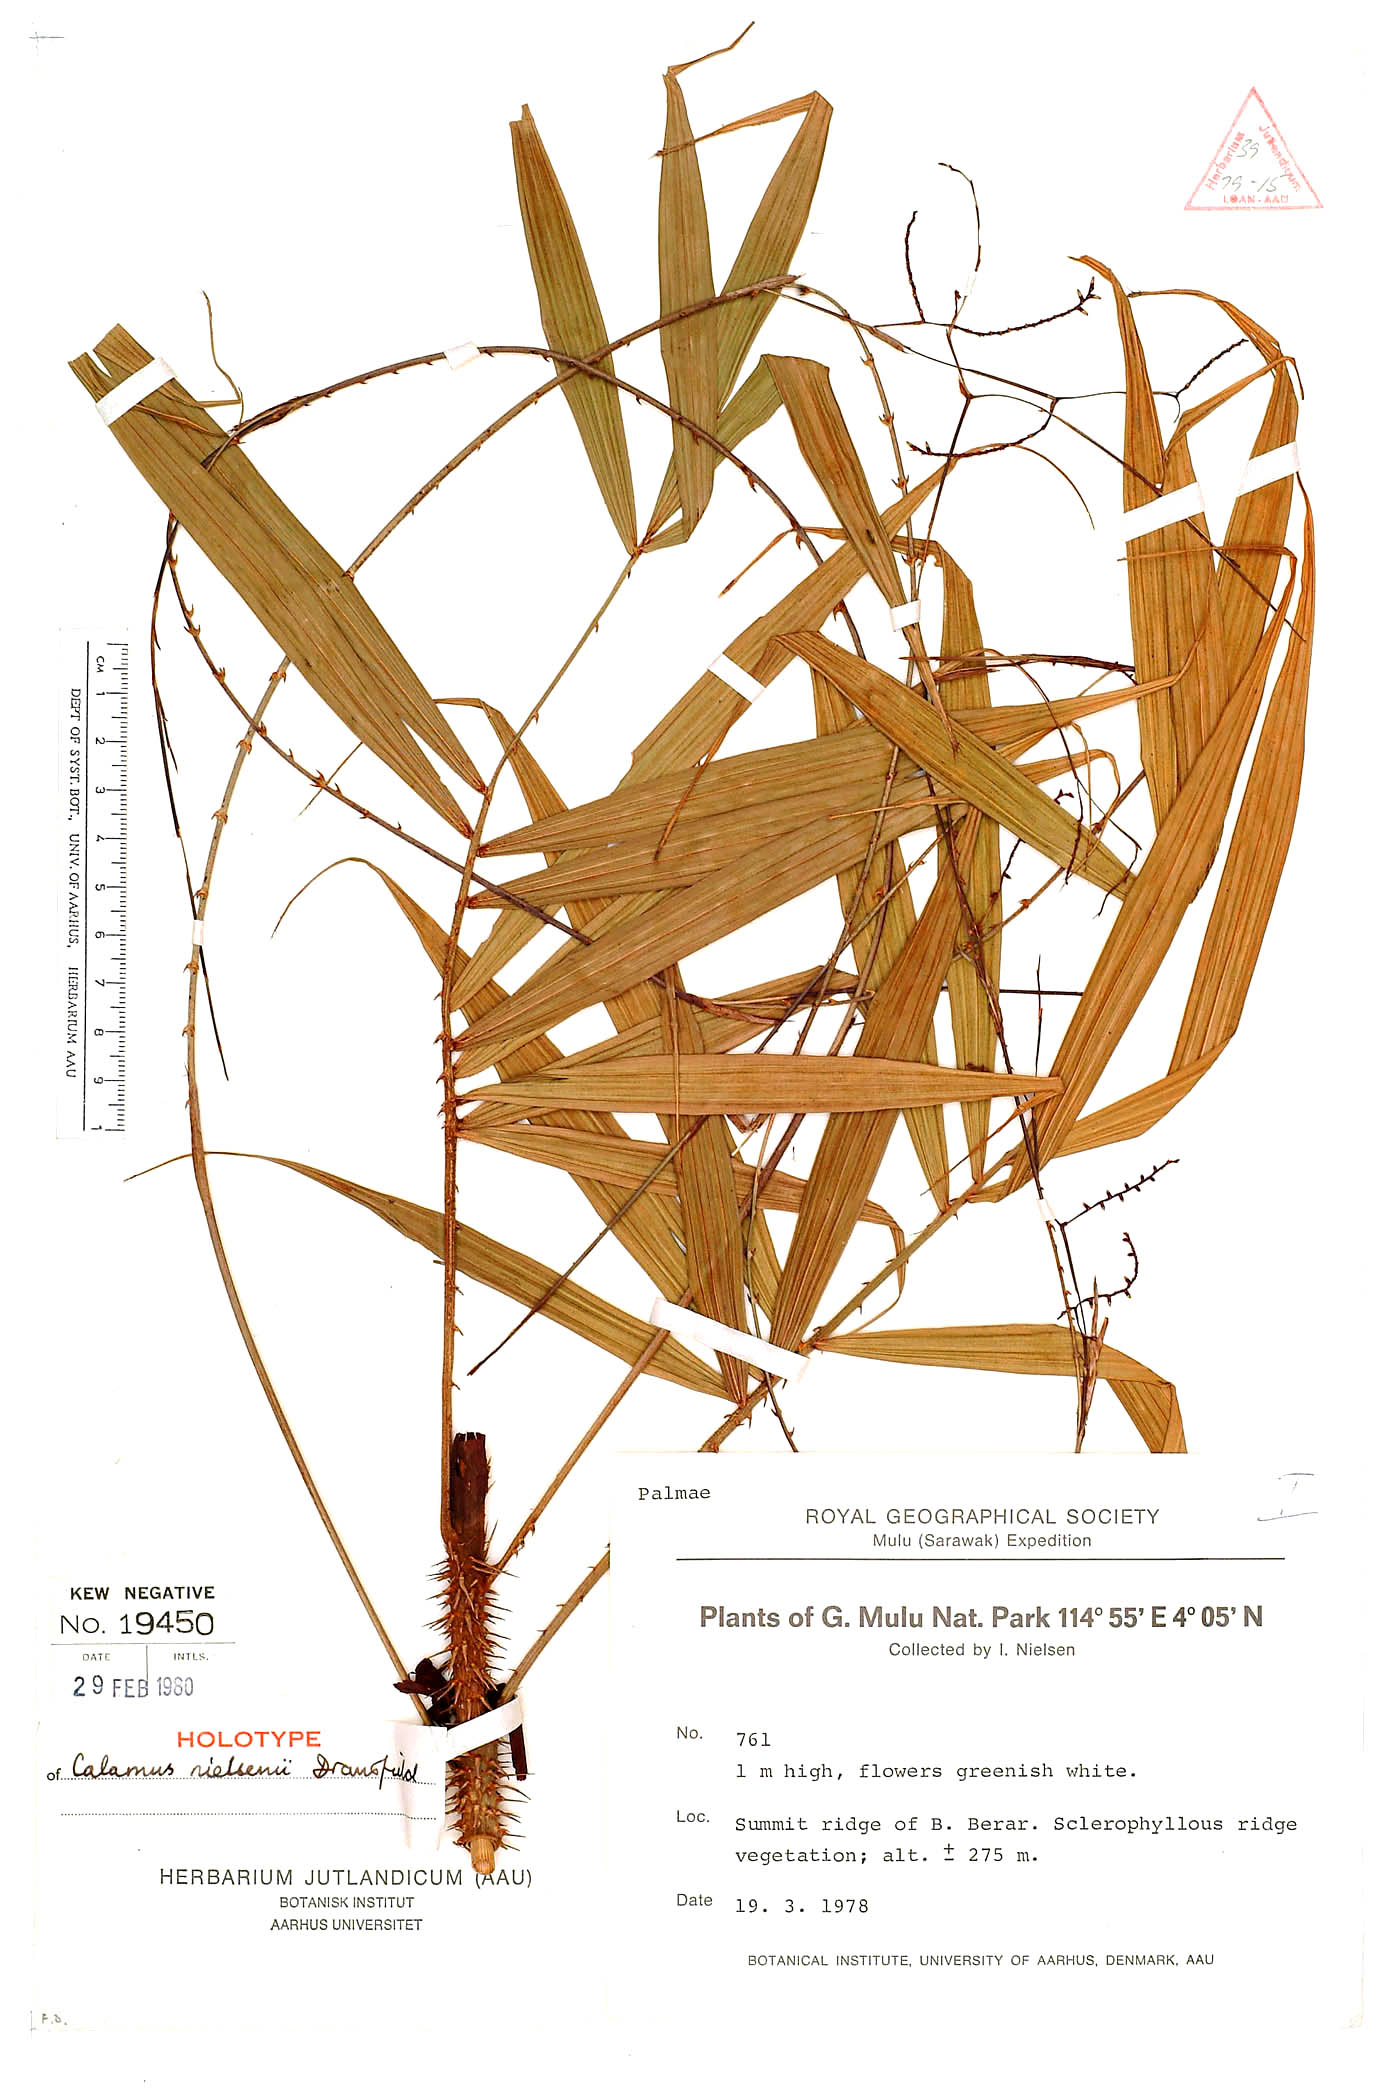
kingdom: Plantae
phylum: Tracheophyta
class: Liliopsida
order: Arecales
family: Arecaceae
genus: Calamus
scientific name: Calamus nielsenii
